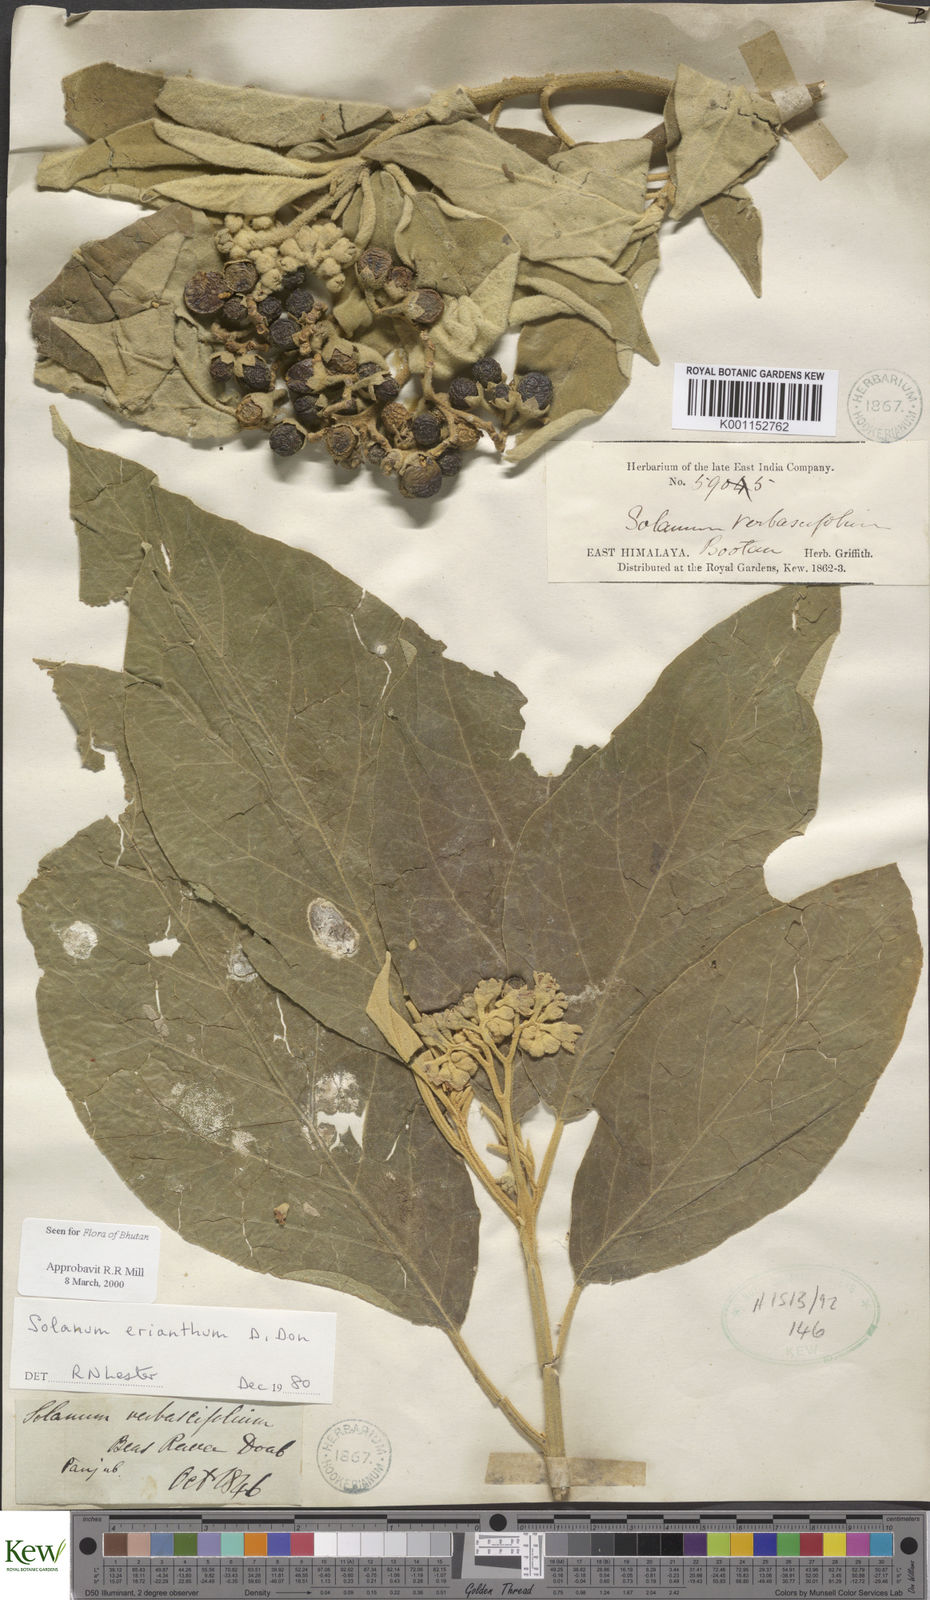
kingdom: Plantae
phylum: Tracheophyta
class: Magnoliopsida
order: Solanales
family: Solanaceae
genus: Solanum
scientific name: Solanum erianthum
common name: Tobacco-tree
